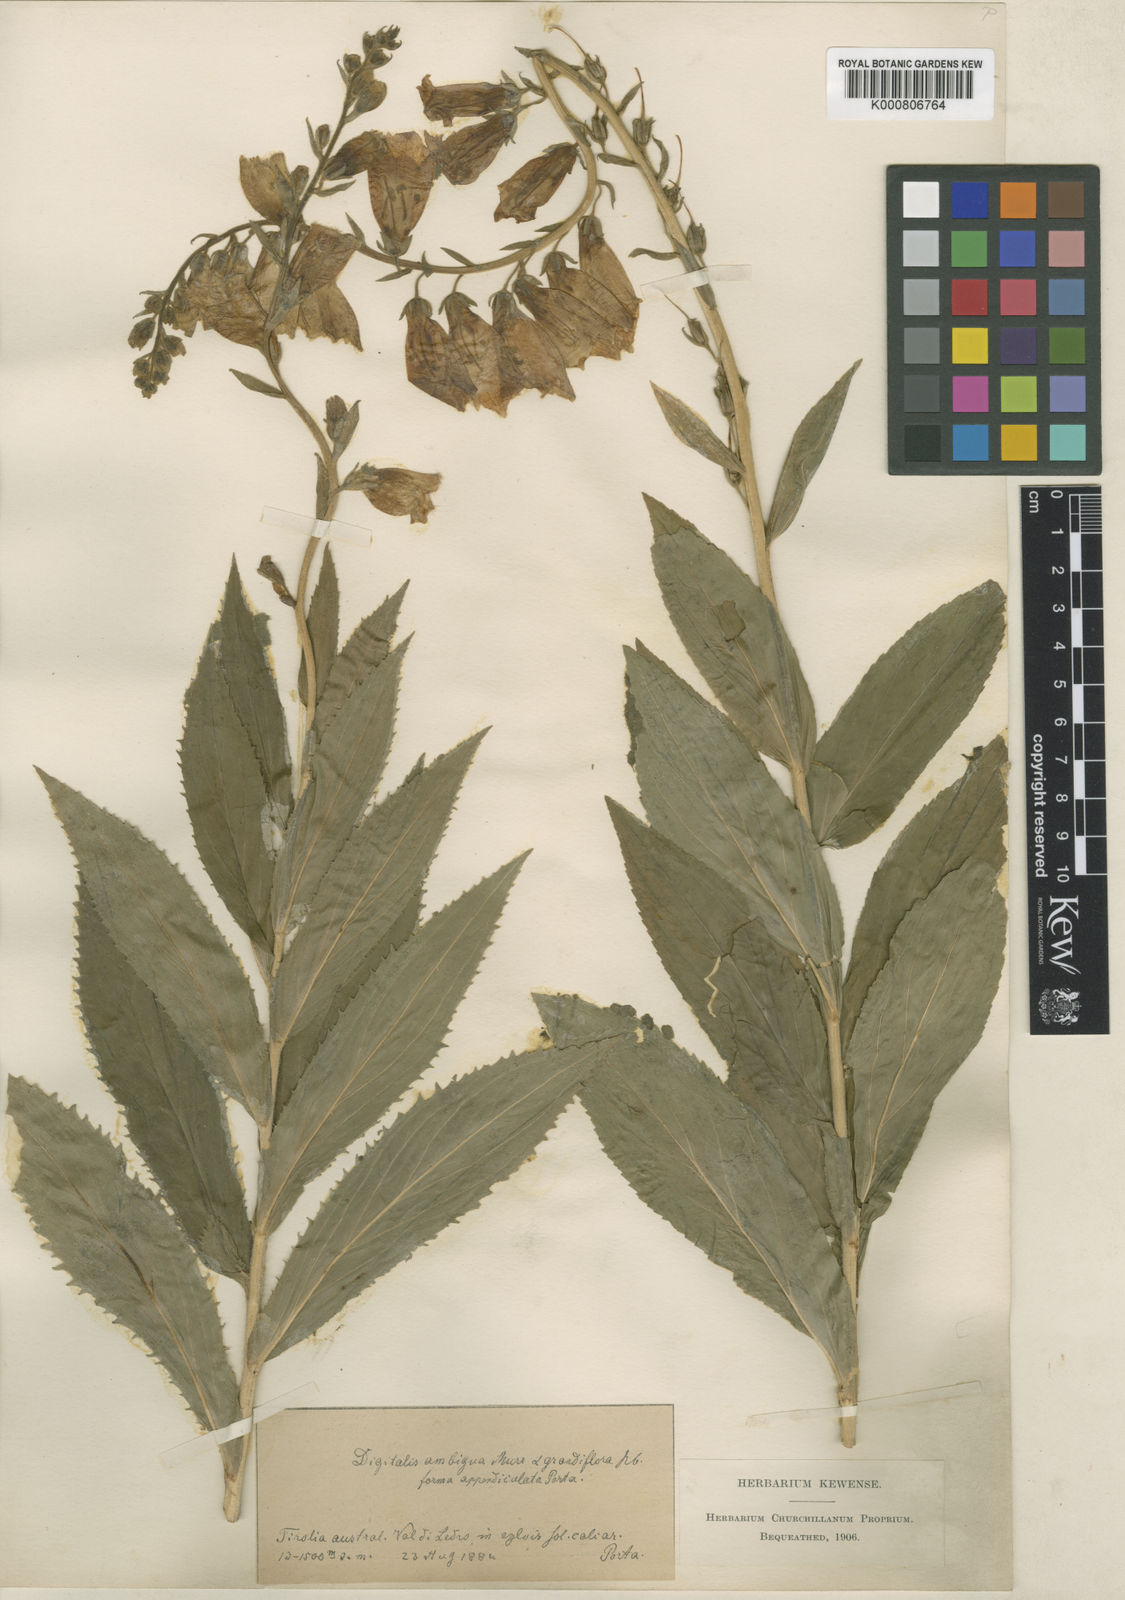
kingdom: Plantae
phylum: Tracheophyta
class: Magnoliopsida
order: Lamiales
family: Plantaginaceae
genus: Digitalis
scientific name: Digitalis grandiflora
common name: Yellow foxglove
